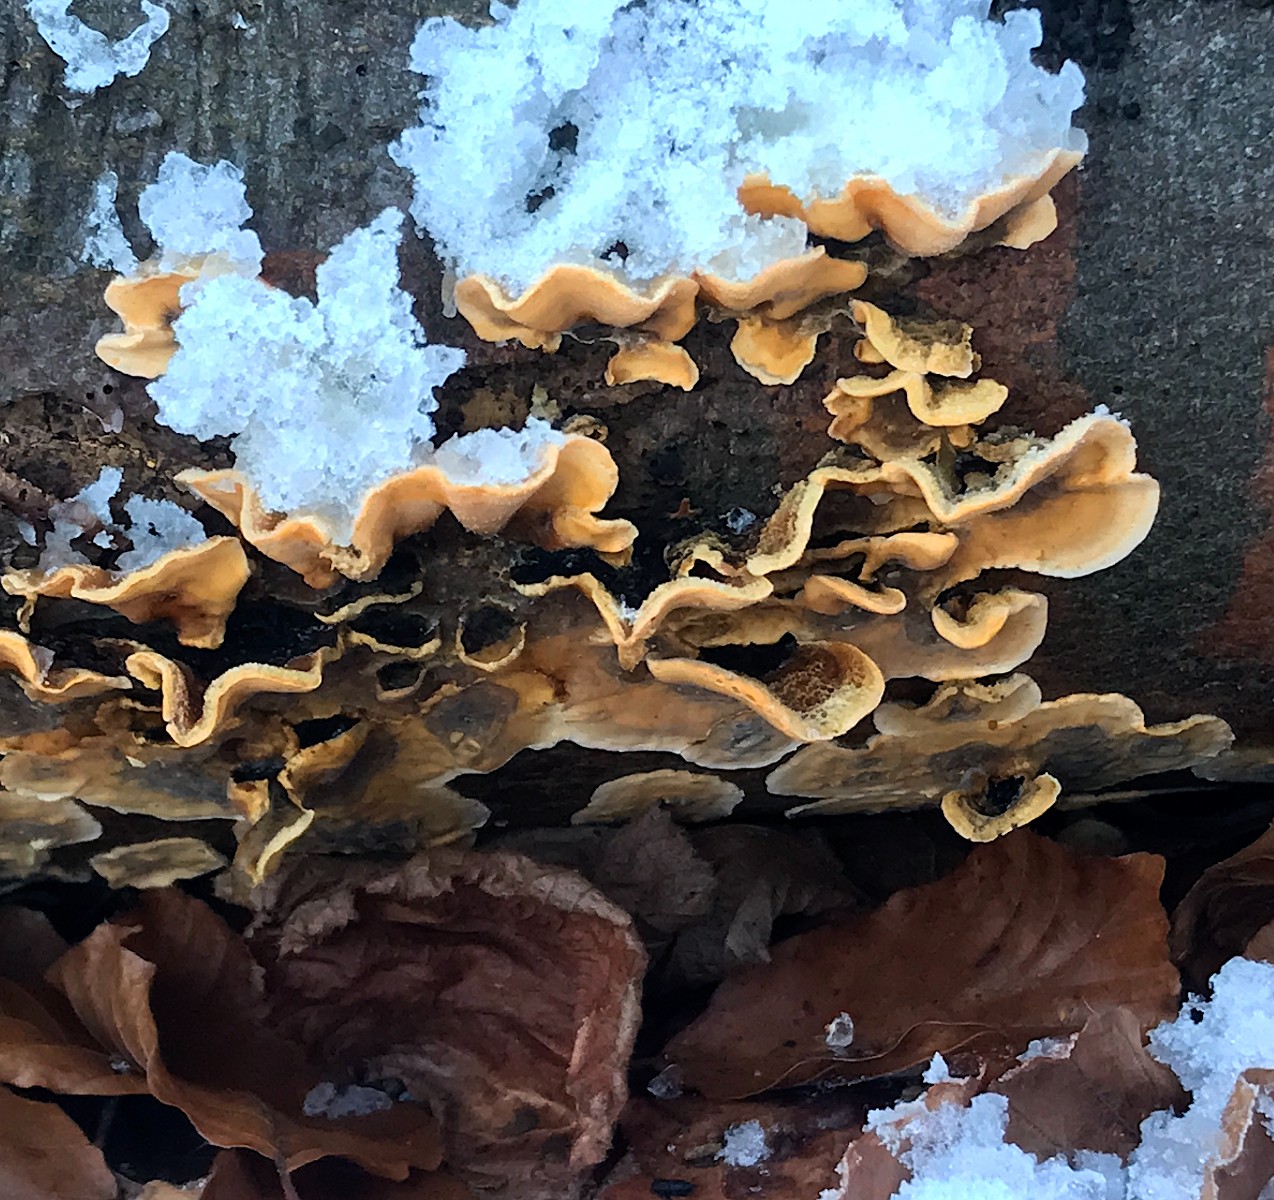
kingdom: Fungi
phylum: Basidiomycota
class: Agaricomycetes
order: Russulales
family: Stereaceae
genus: Stereum
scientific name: Stereum hirsutum
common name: håret lædersvamp
